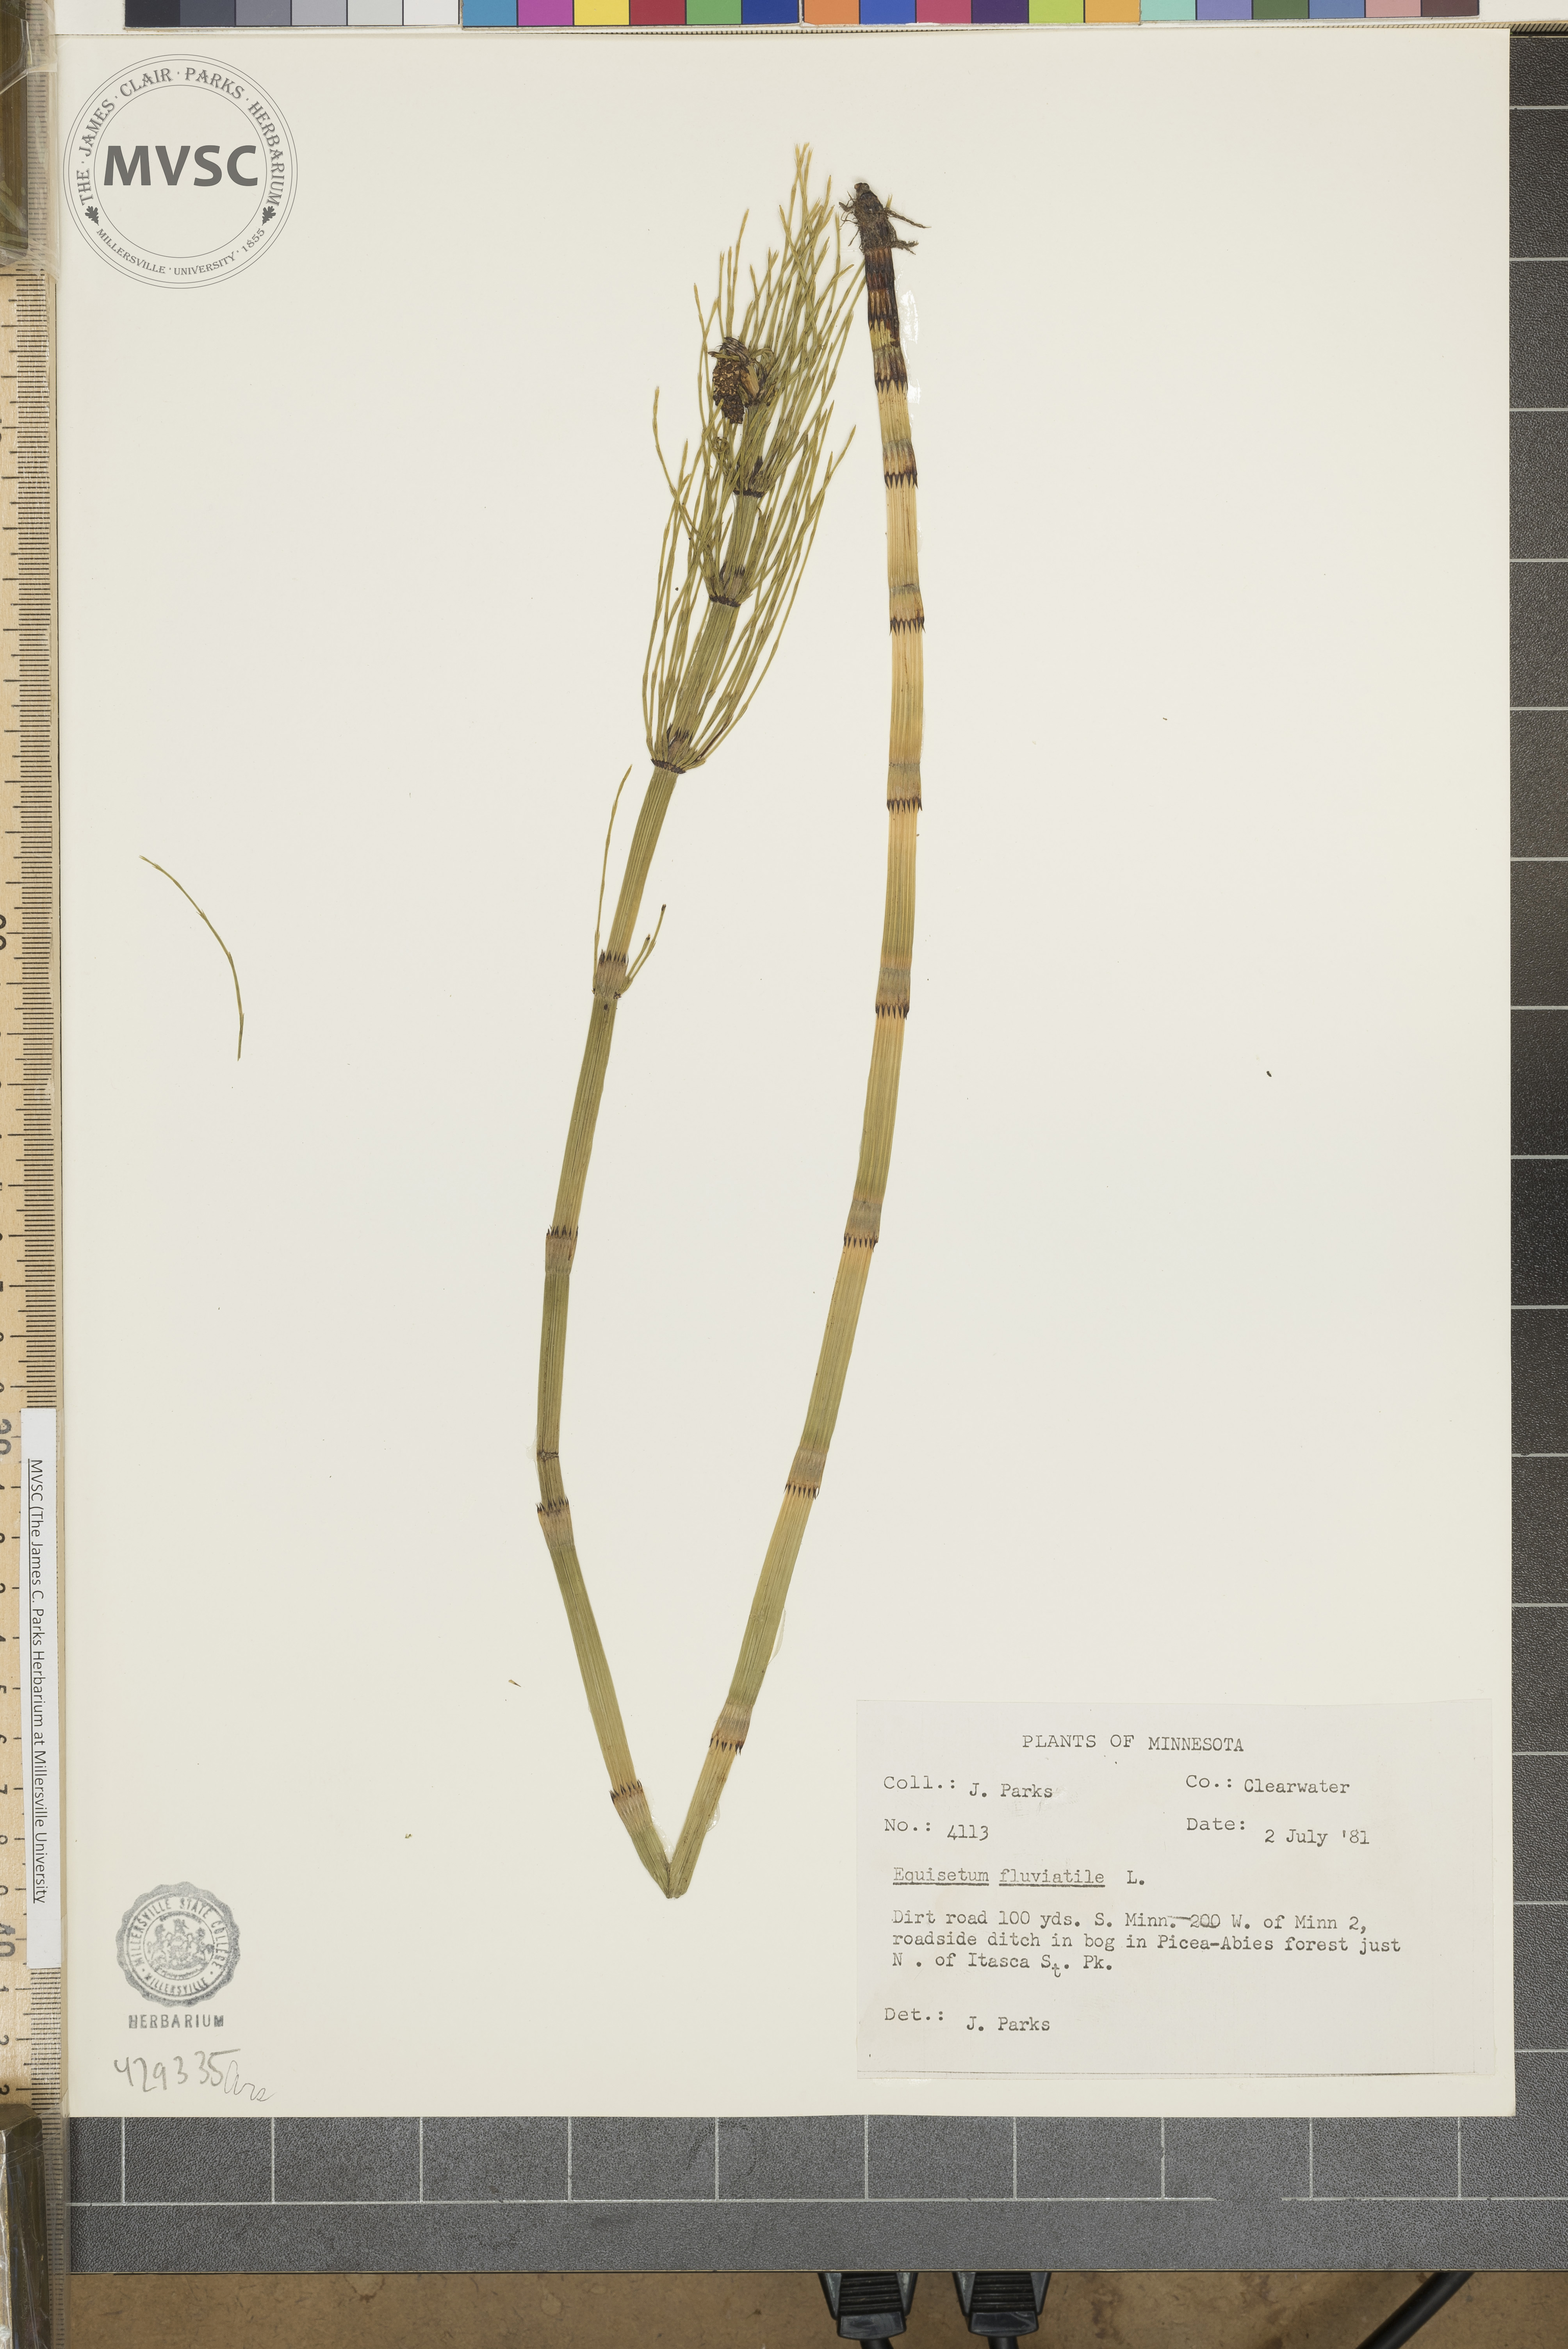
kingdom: Plantae
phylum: Tracheophyta
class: Polypodiopsida
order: Equisetales
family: Equisetaceae
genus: Equisetum
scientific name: Equisetum fluviatile
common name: Water horsetail
